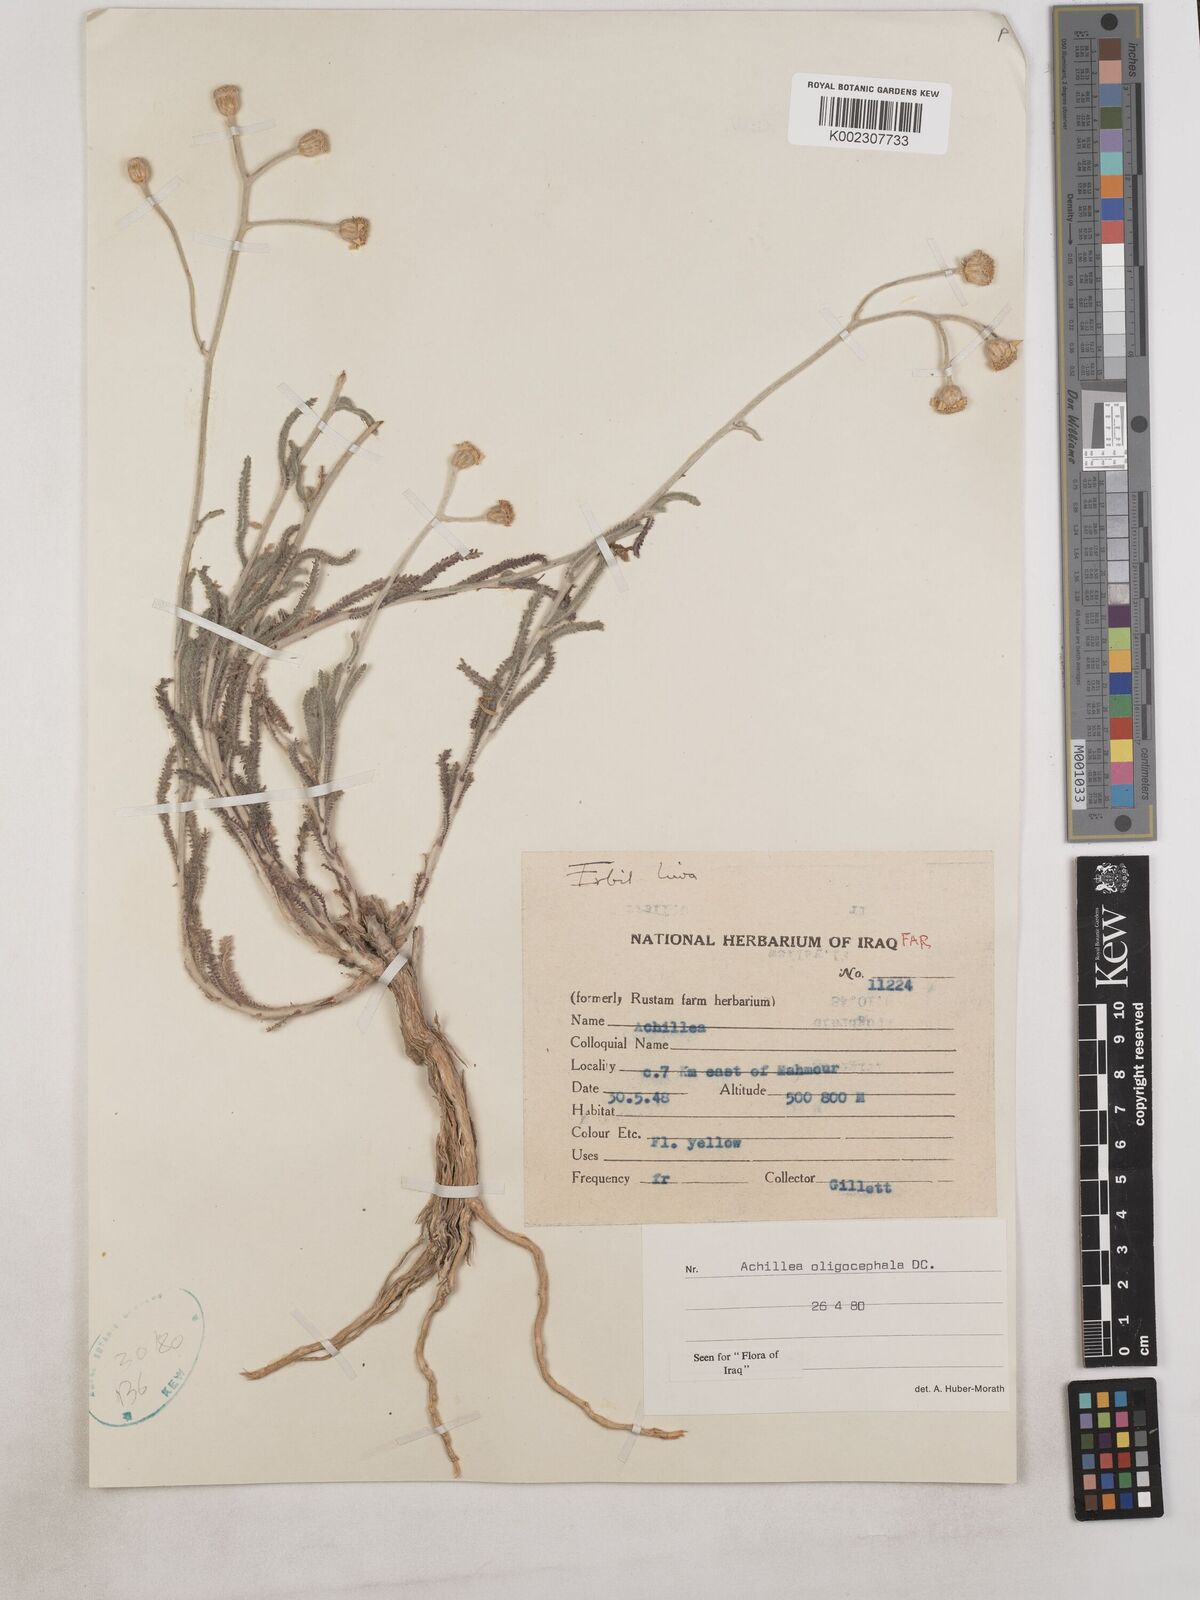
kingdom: Plantae
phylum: Tracheophyta
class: Magnoliopsida
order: Asterales
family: Asteraceae
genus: Achillea
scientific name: Achillea oligocephala
